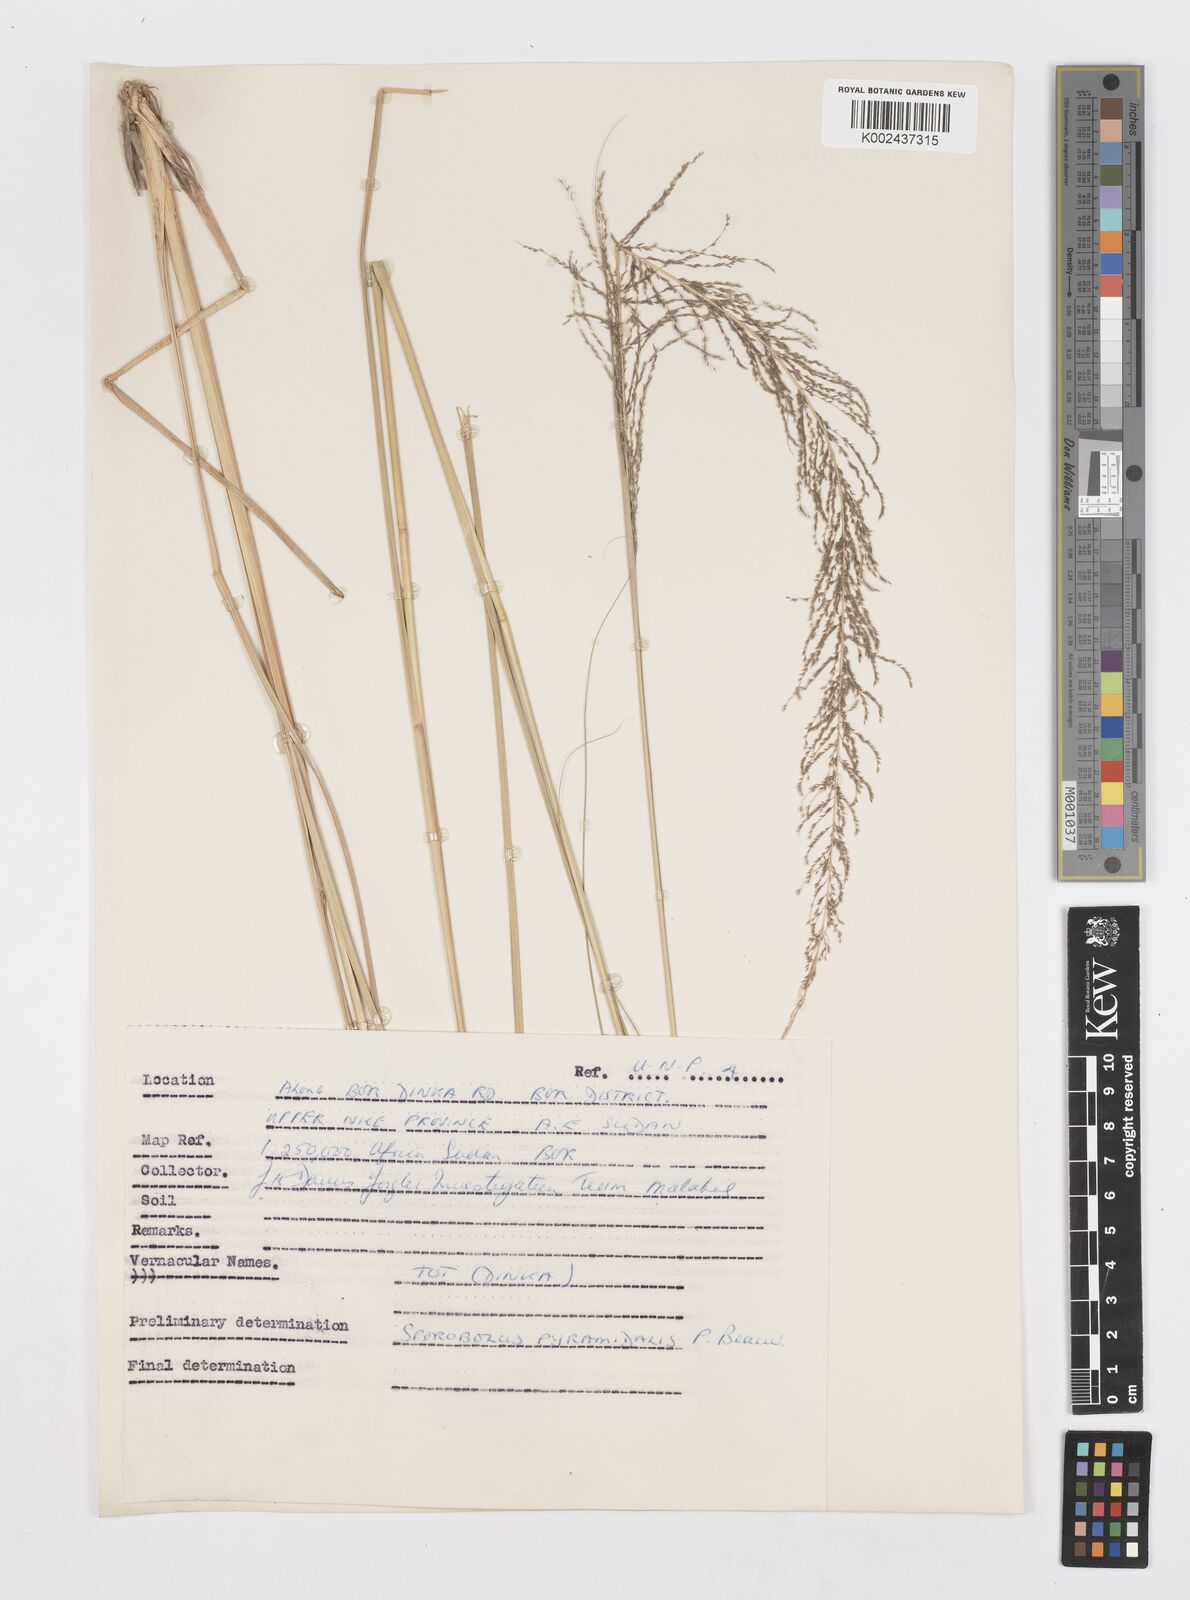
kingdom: Plantae
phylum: Tracheophyta
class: Liliopsida
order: Poales
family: Poaceae
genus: Sporobolus
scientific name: Sporobolus pyramidalis
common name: West indian dropseed
